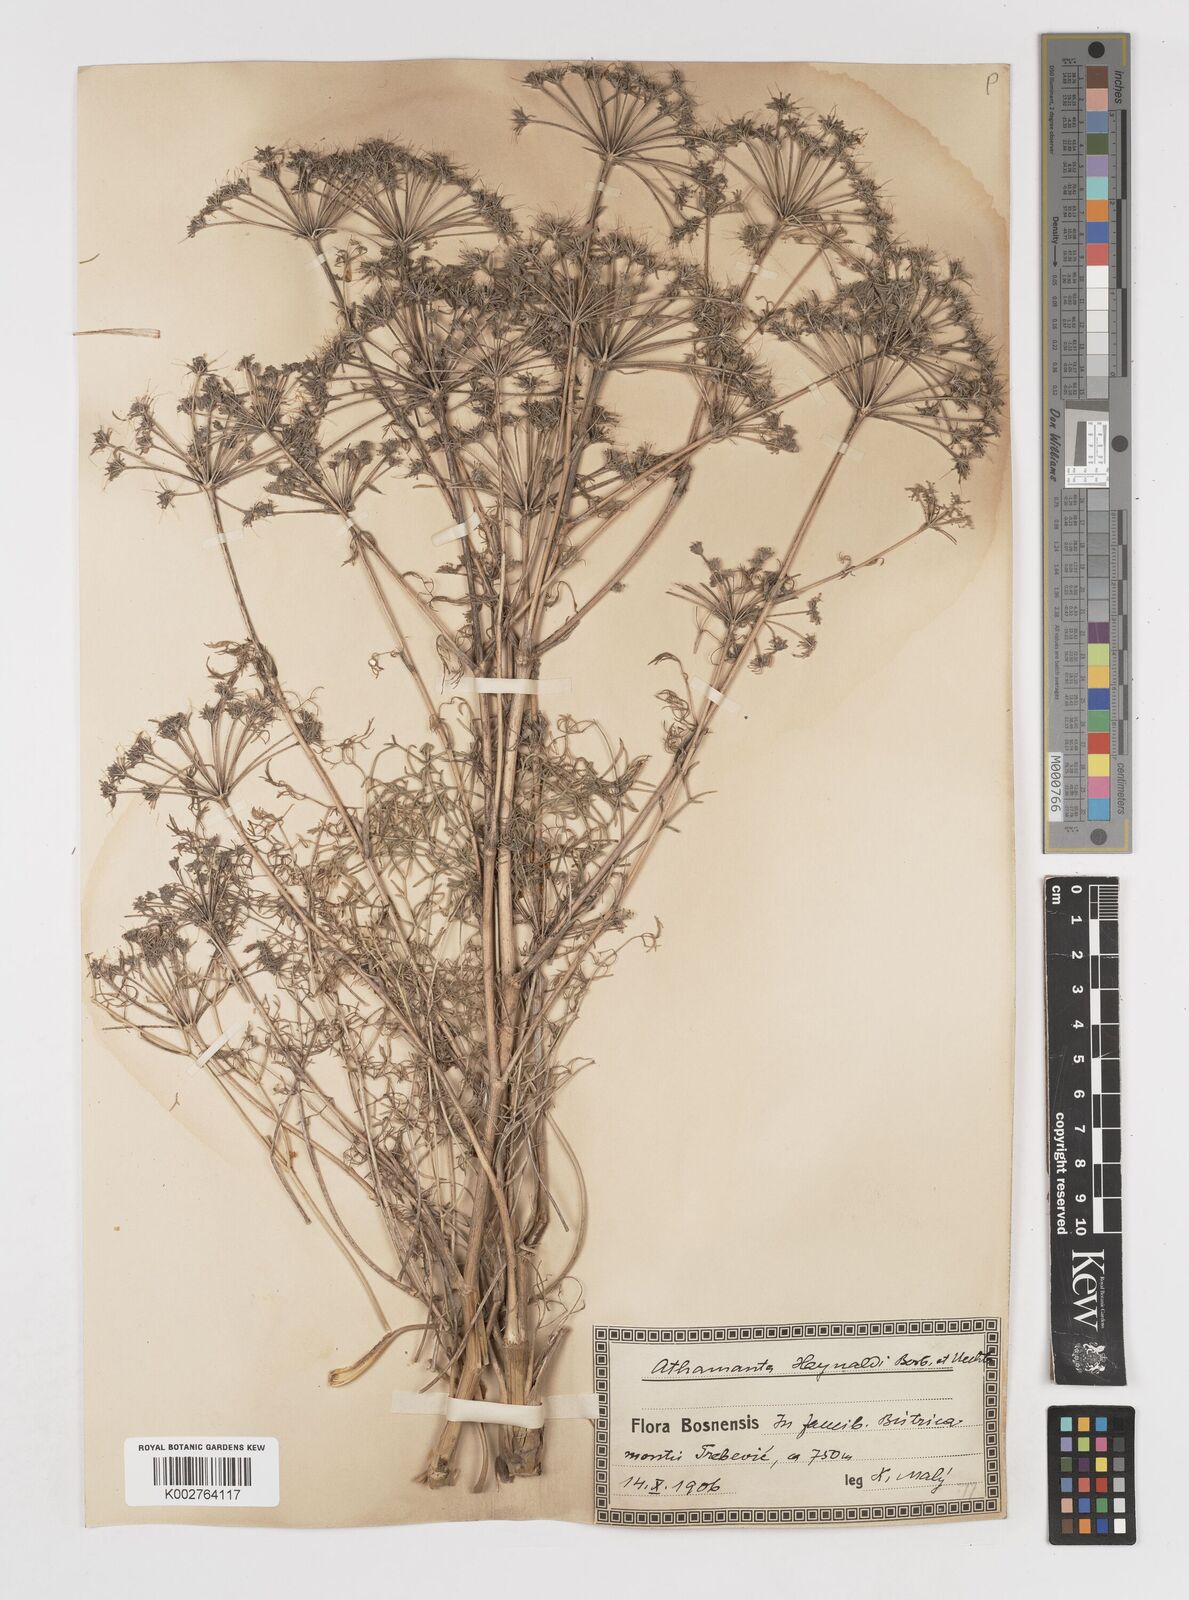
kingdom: Plantae
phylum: Tracheophyta
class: Magnoliopsida
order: Apiales
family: Apiaceae
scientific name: Apiaceae
